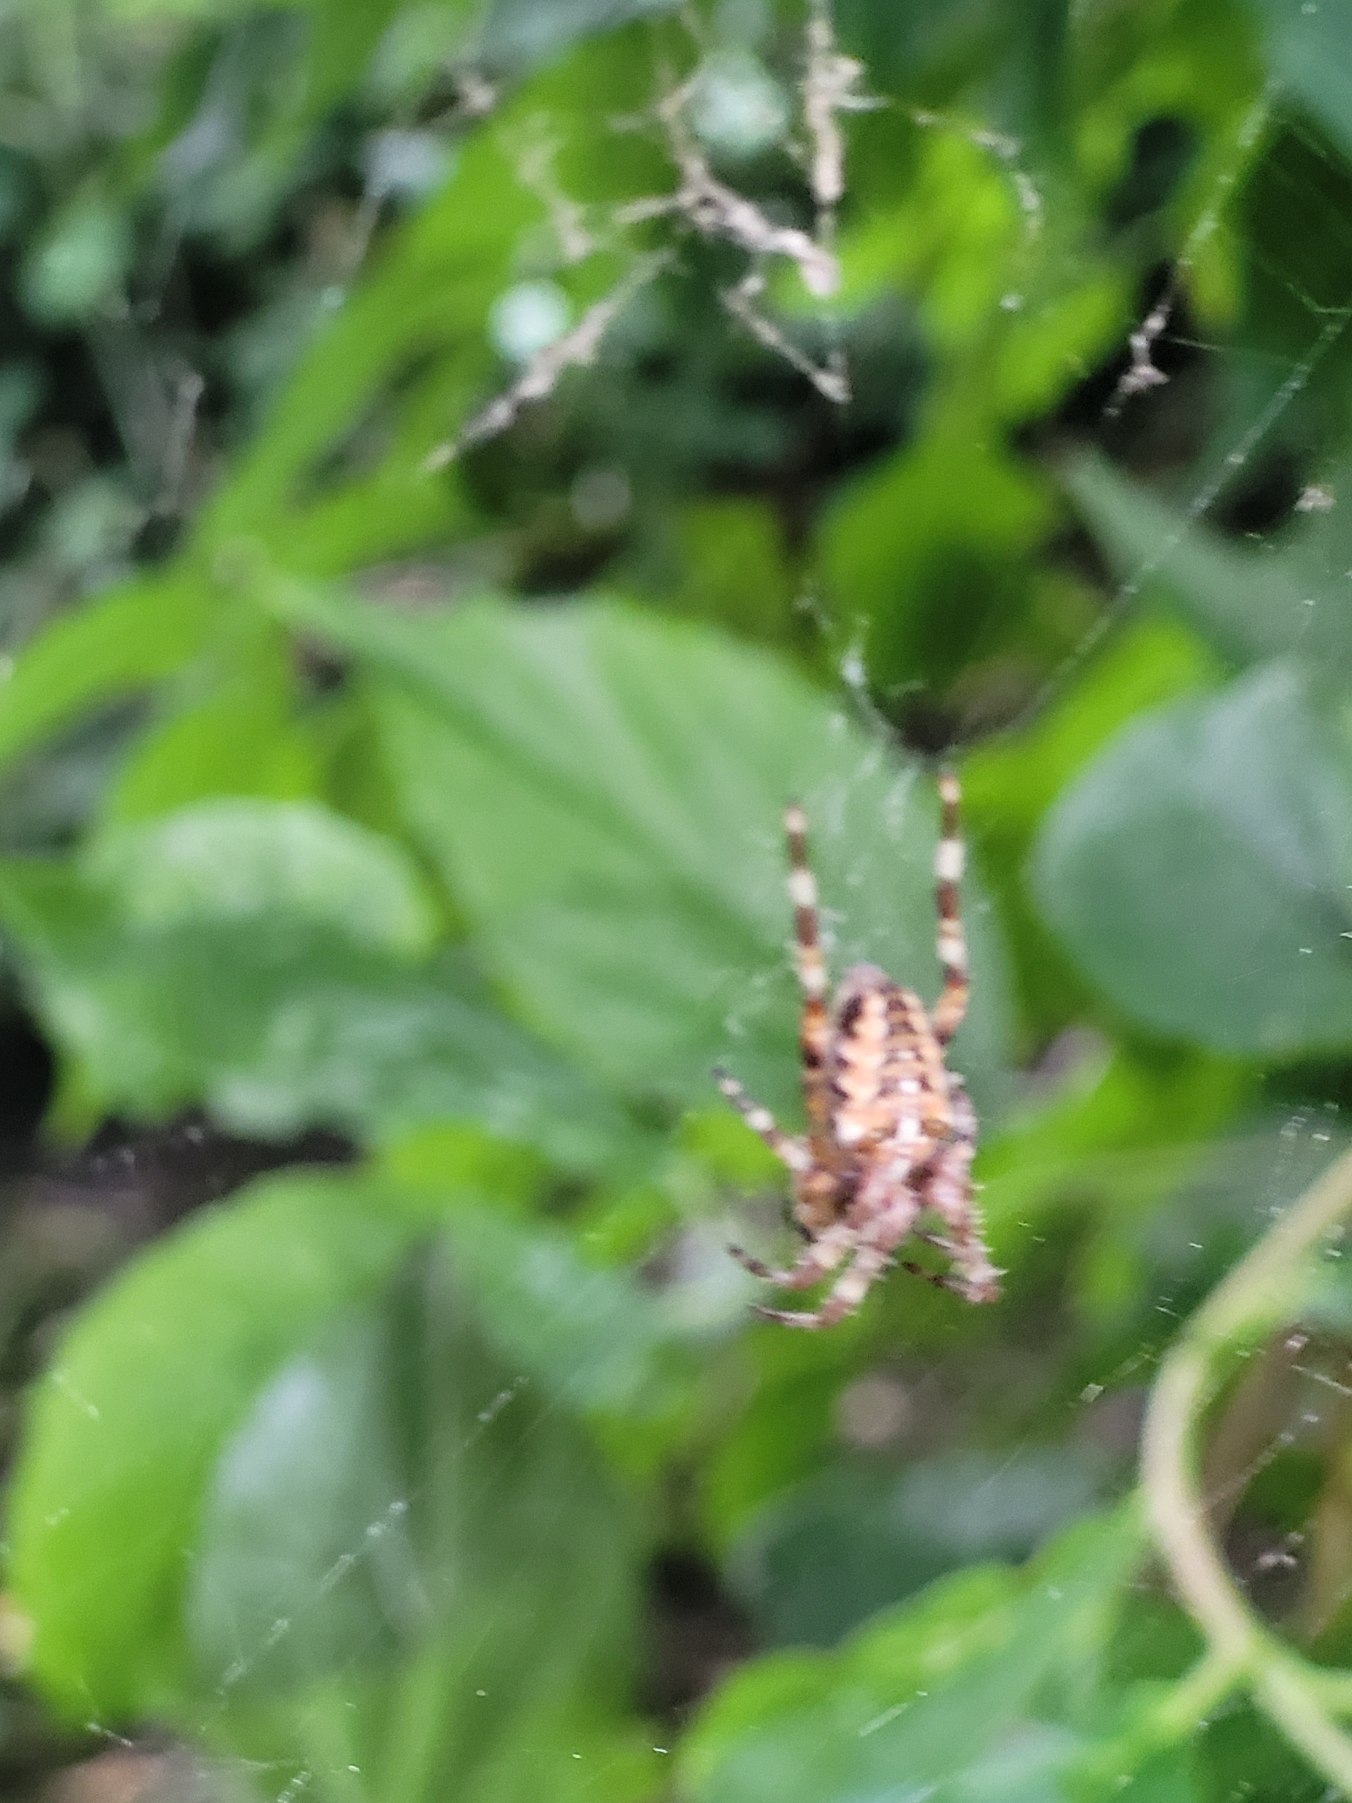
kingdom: Animalia
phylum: Arthropoda
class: Arachnida
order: Araneae
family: Araneidae
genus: Araneus
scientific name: Araneus diadematus
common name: Korsedderkop
